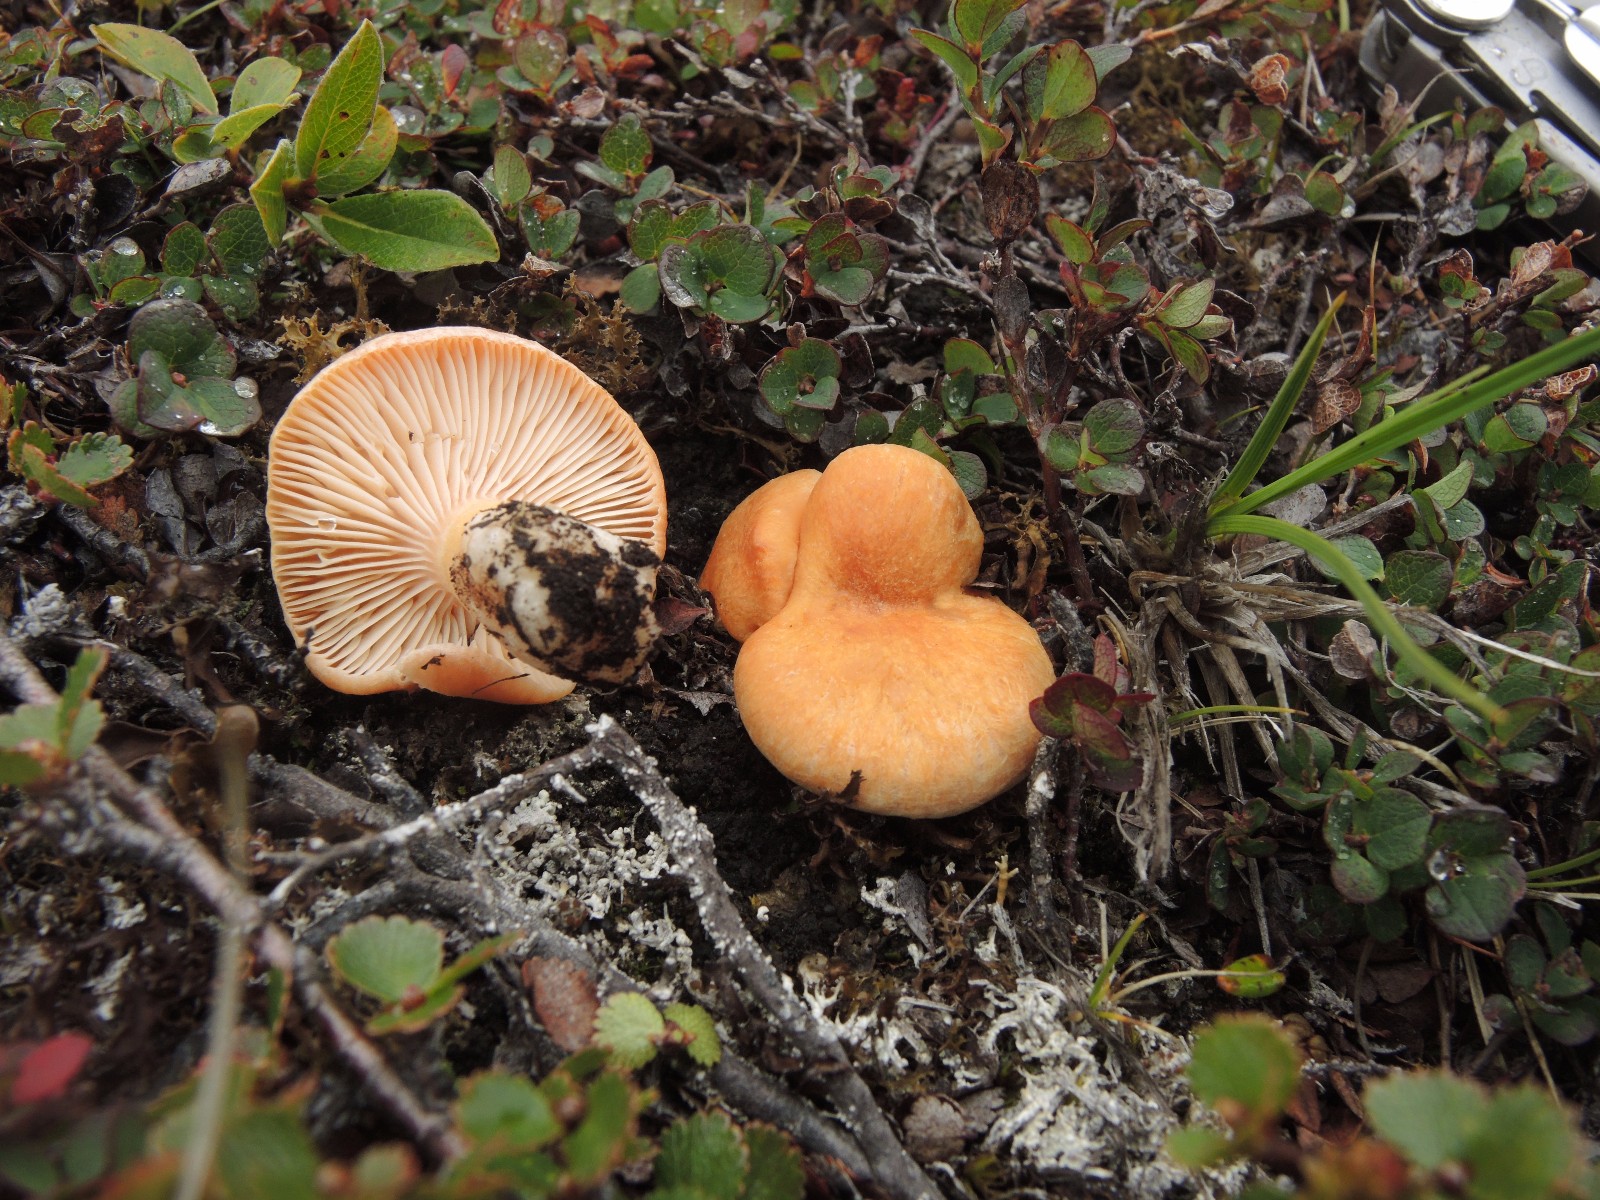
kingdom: Fungi
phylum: Basidiomycota
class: Agaricomycetes
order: Russulales
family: Russulaceae
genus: Lactarius
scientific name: Lactarius salicis-herbaceae
